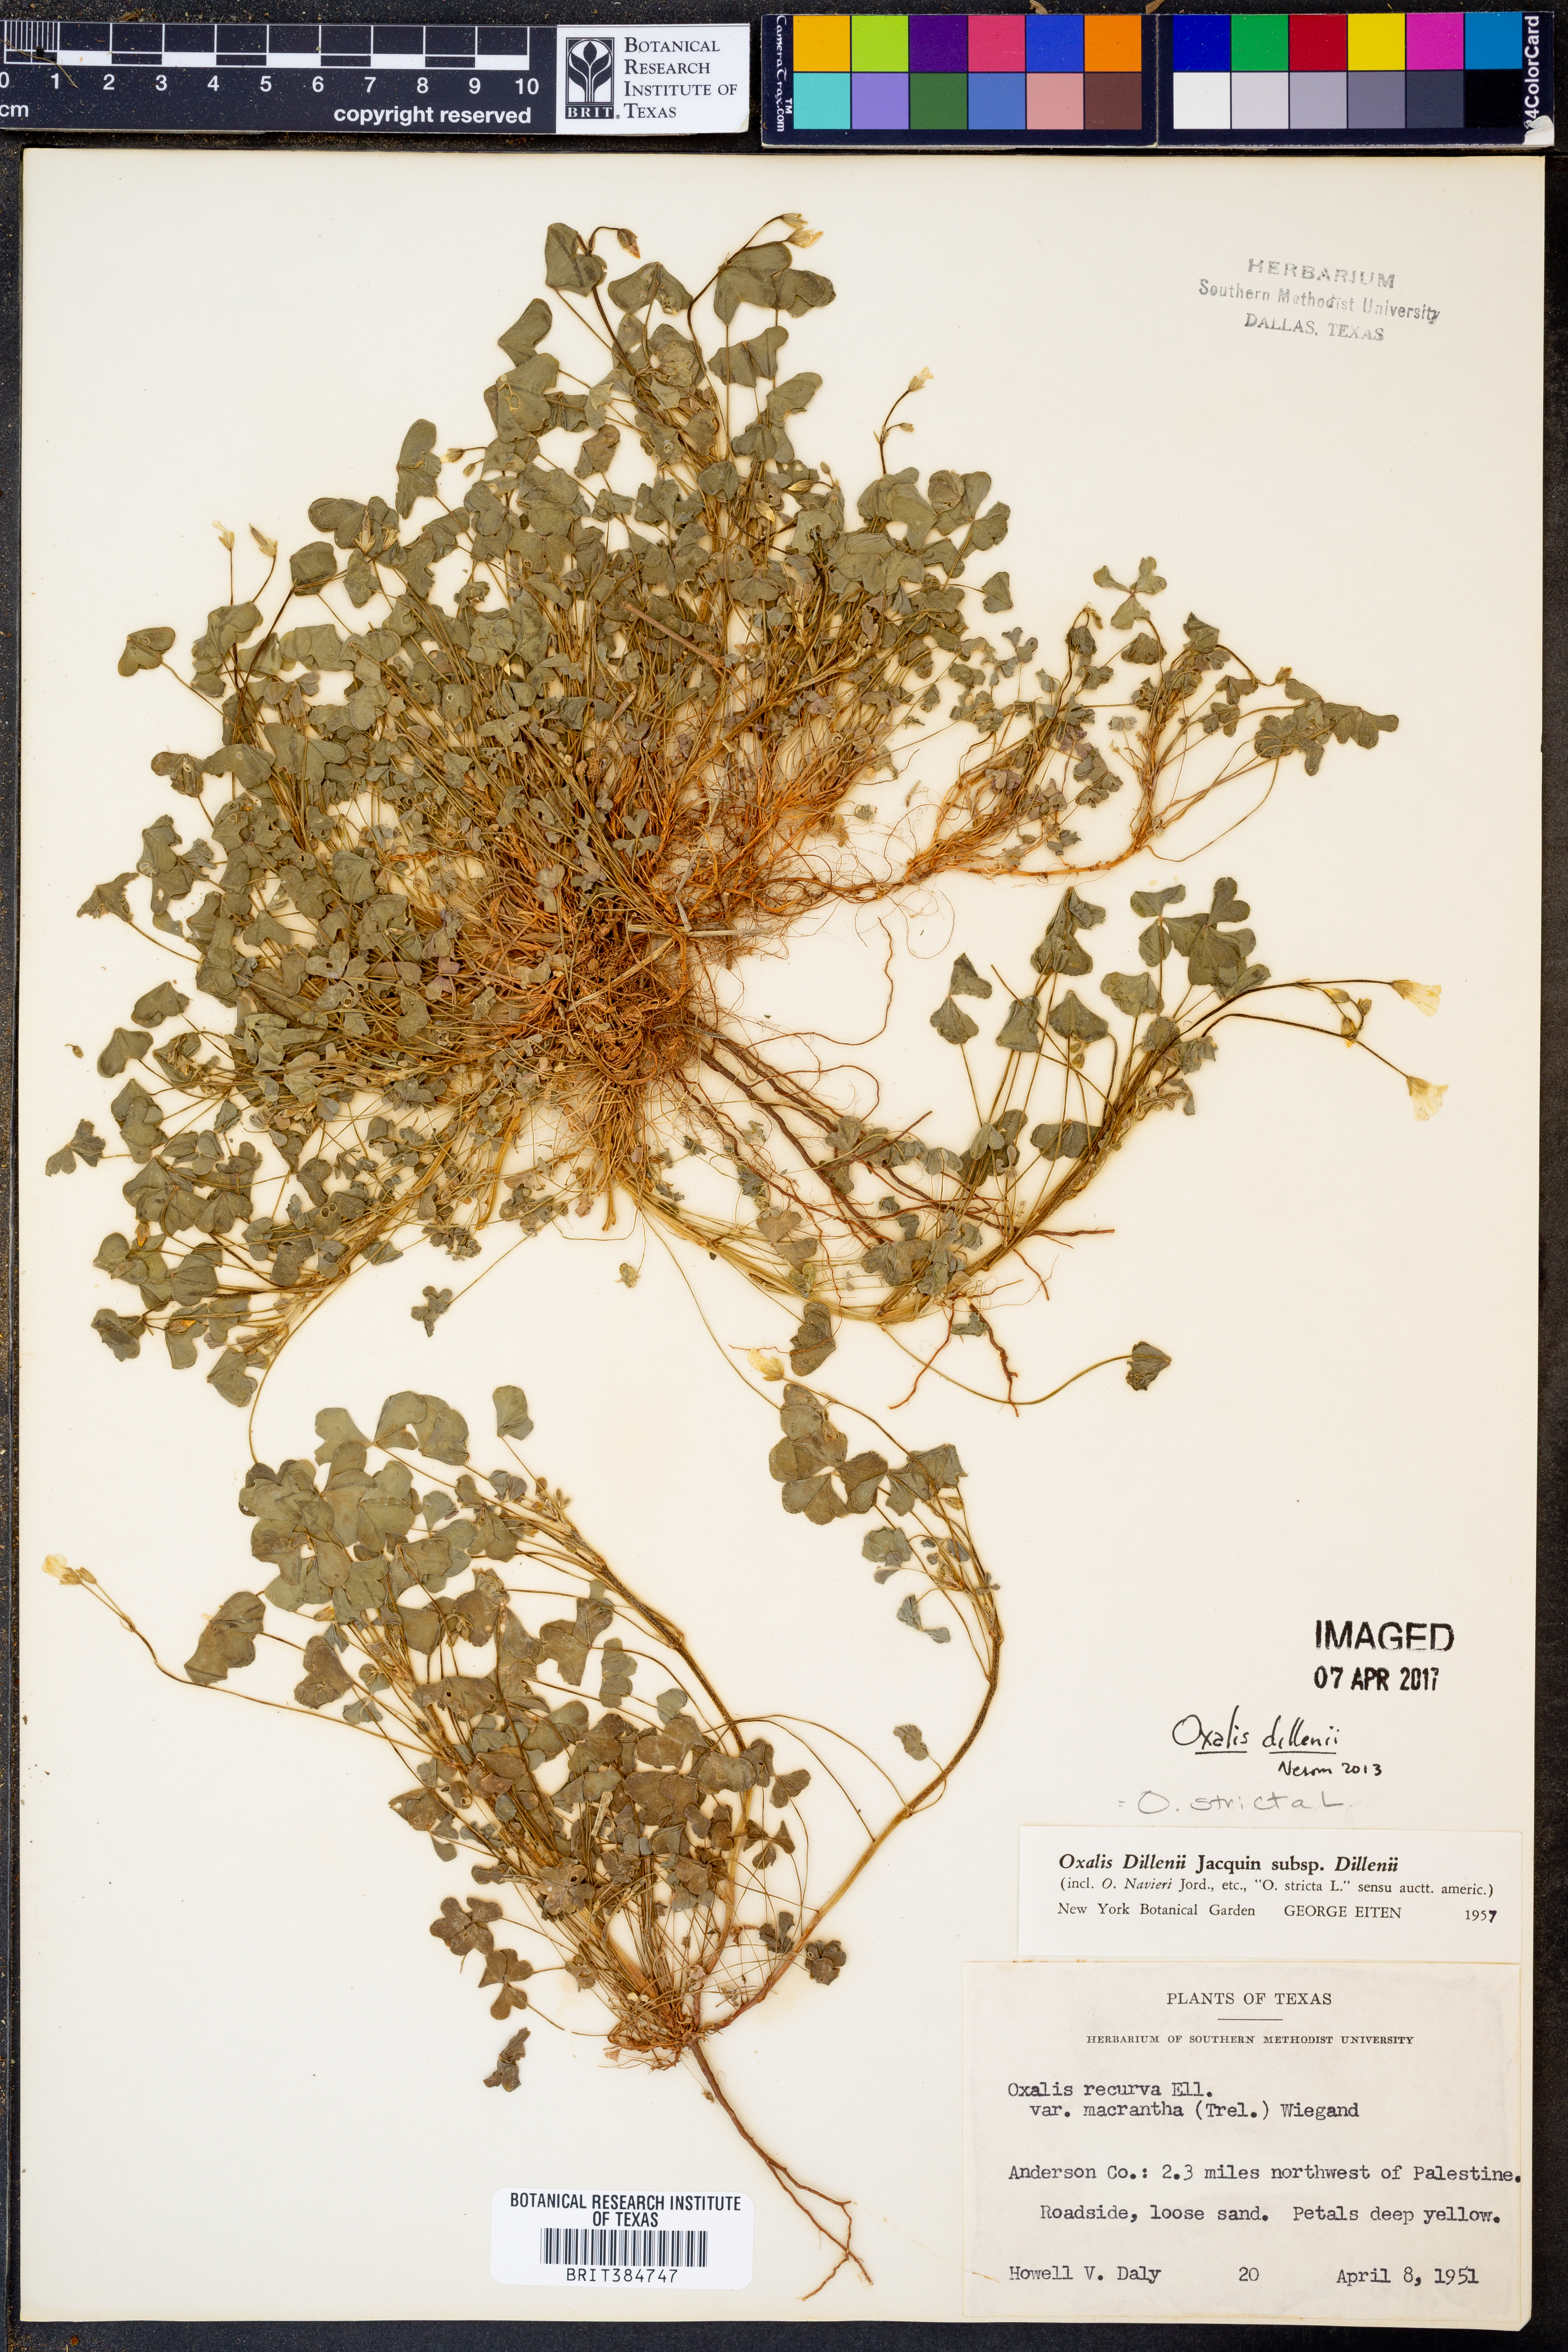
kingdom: Plantae
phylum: Tracheophyta
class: Magnoliopsida
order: Oxalidales
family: Oxalidaceae
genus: Oxalis
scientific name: Oxalis dillenii
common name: Sussex yellow-sorrel
